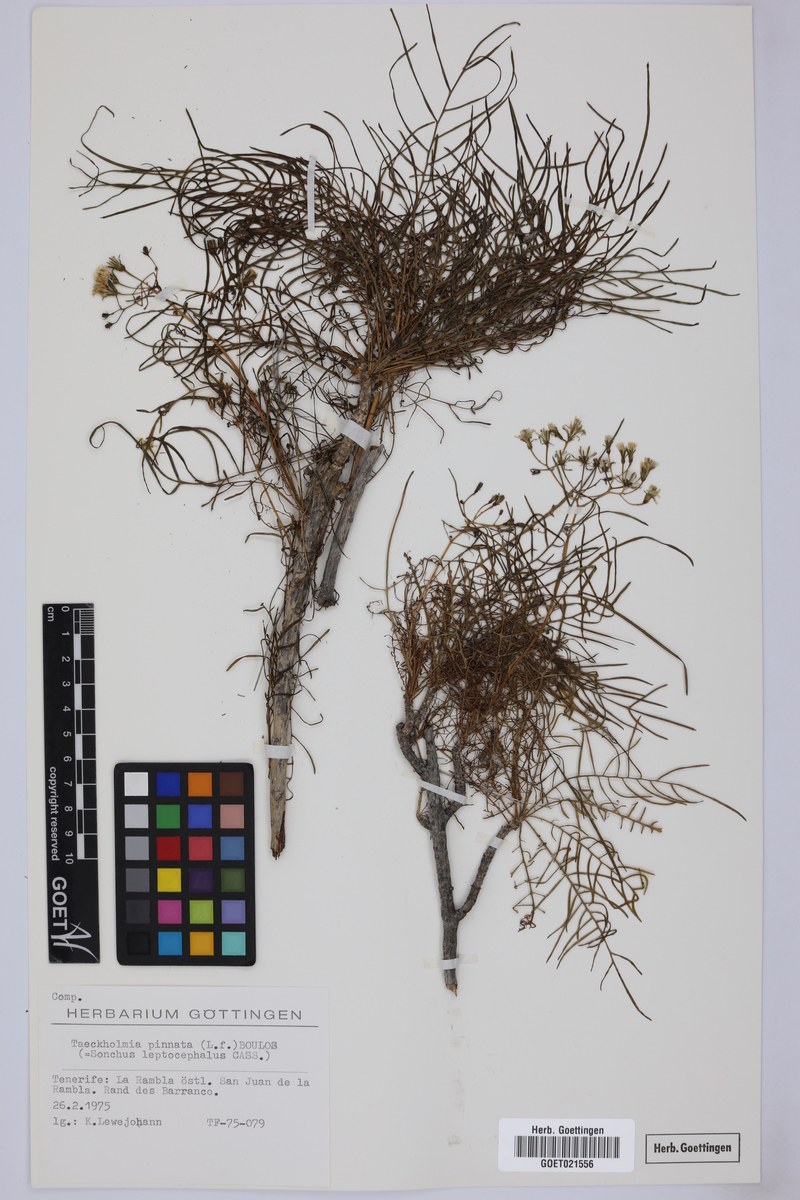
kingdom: Plantae
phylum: Tracheophyta
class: Magnoliopsida
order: Asterales
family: Asteraceae
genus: Sonchus
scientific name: Sonchus leptocephalus
